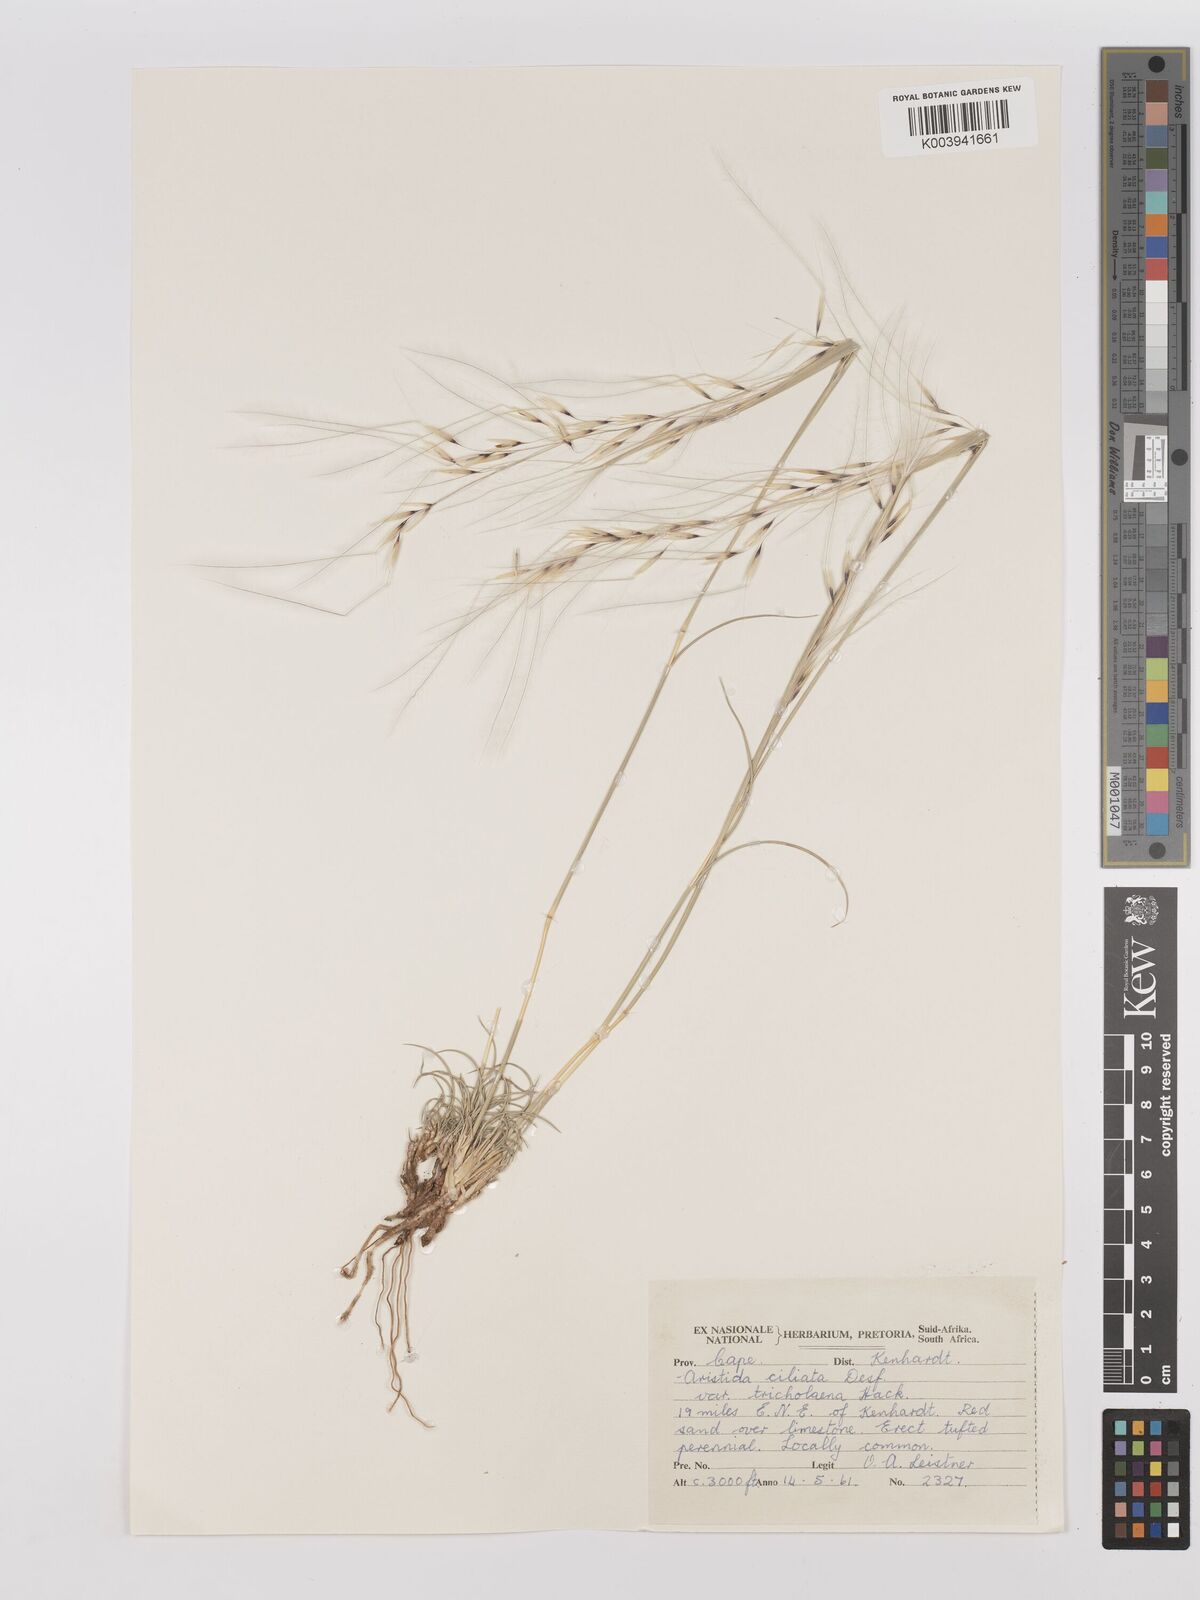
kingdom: Plantae
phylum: Tracheophyta
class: Liliopsida
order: Poales
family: Poaceae
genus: Stipagrostis
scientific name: Stipagrostis ciliata
